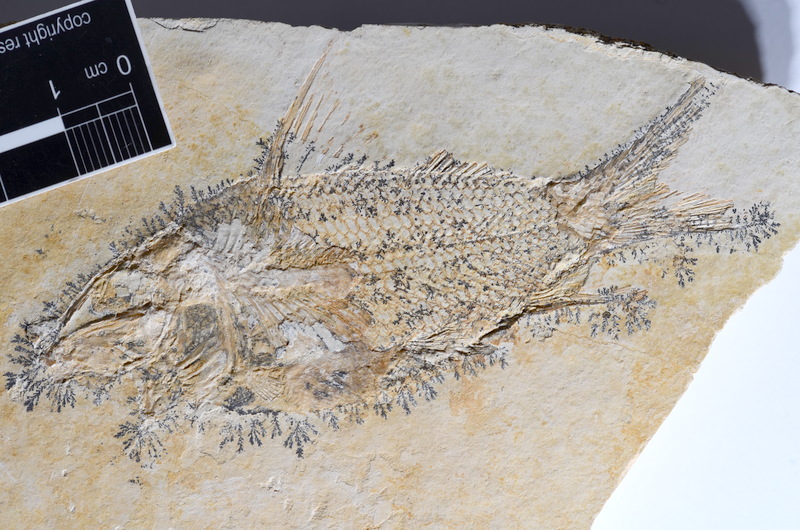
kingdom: Animalia
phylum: Chordata
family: Macrosemiidae
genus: Propterus
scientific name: Propterus microstomus
